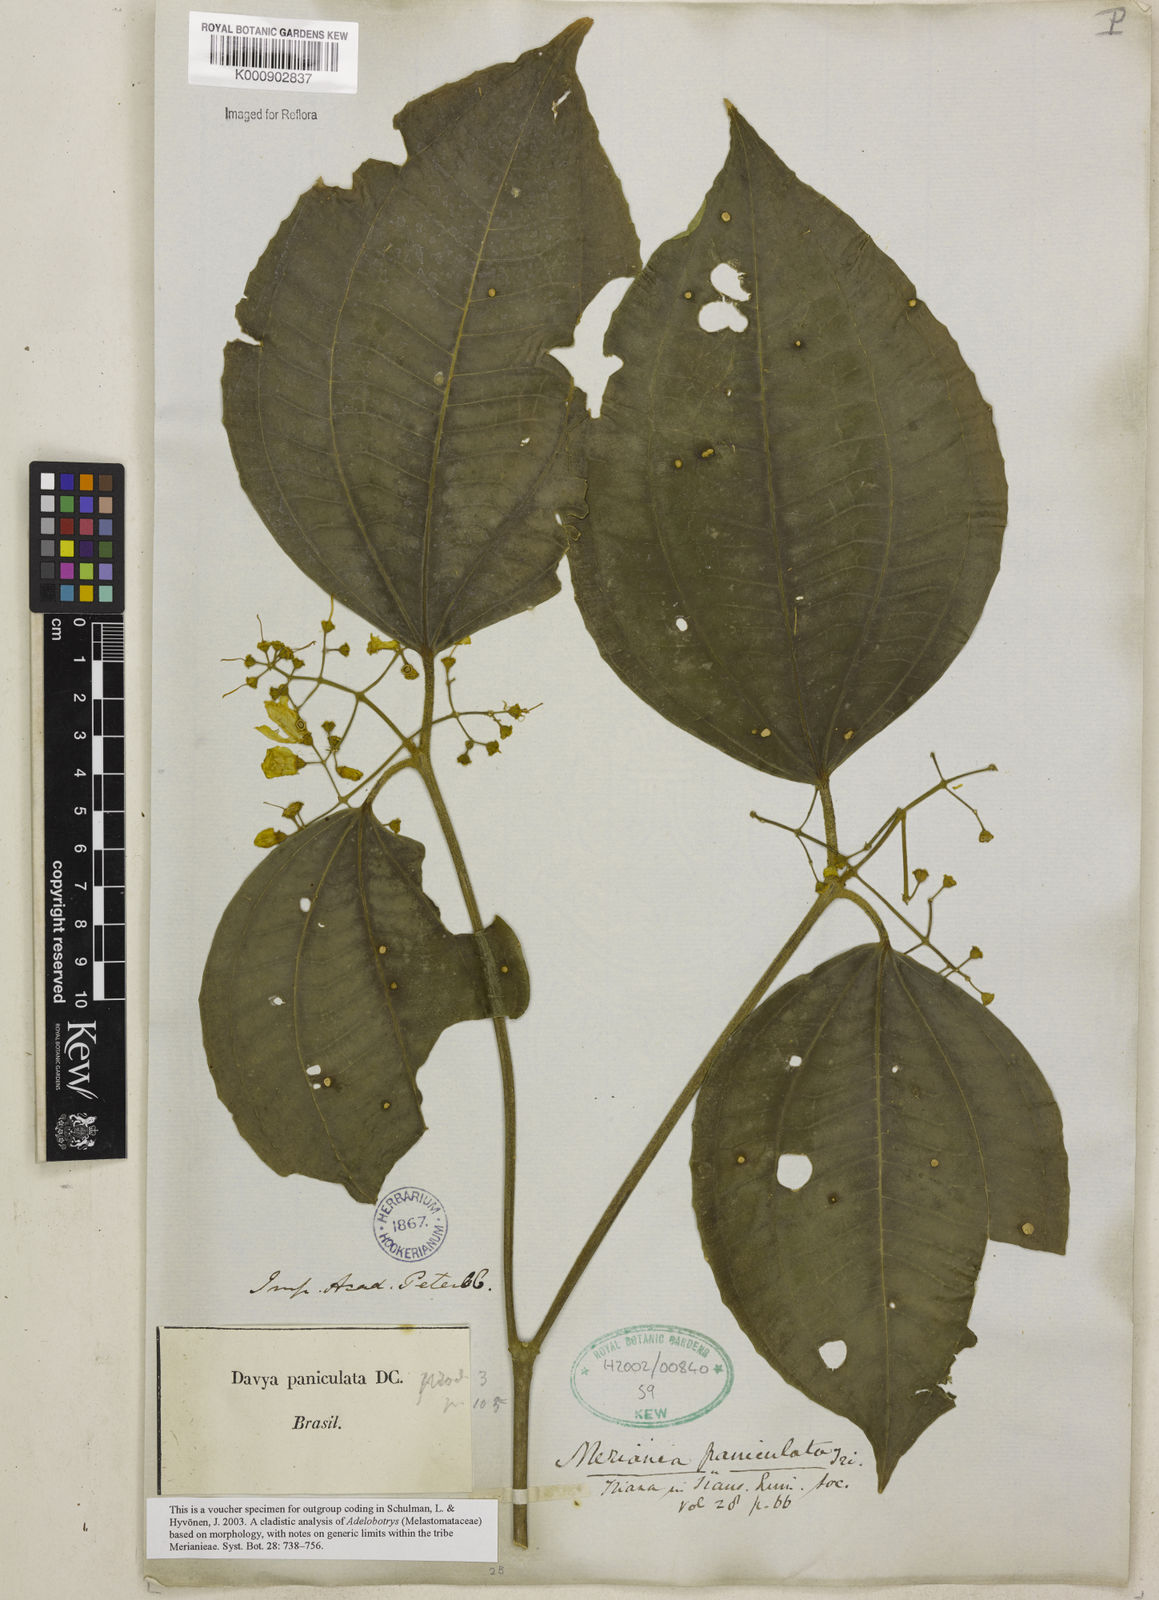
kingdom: Plantae
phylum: Tracheophyta
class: Magnoliopsida
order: Myrtales
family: Melastomataceae
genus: Meriania
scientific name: Meriania paniculata
